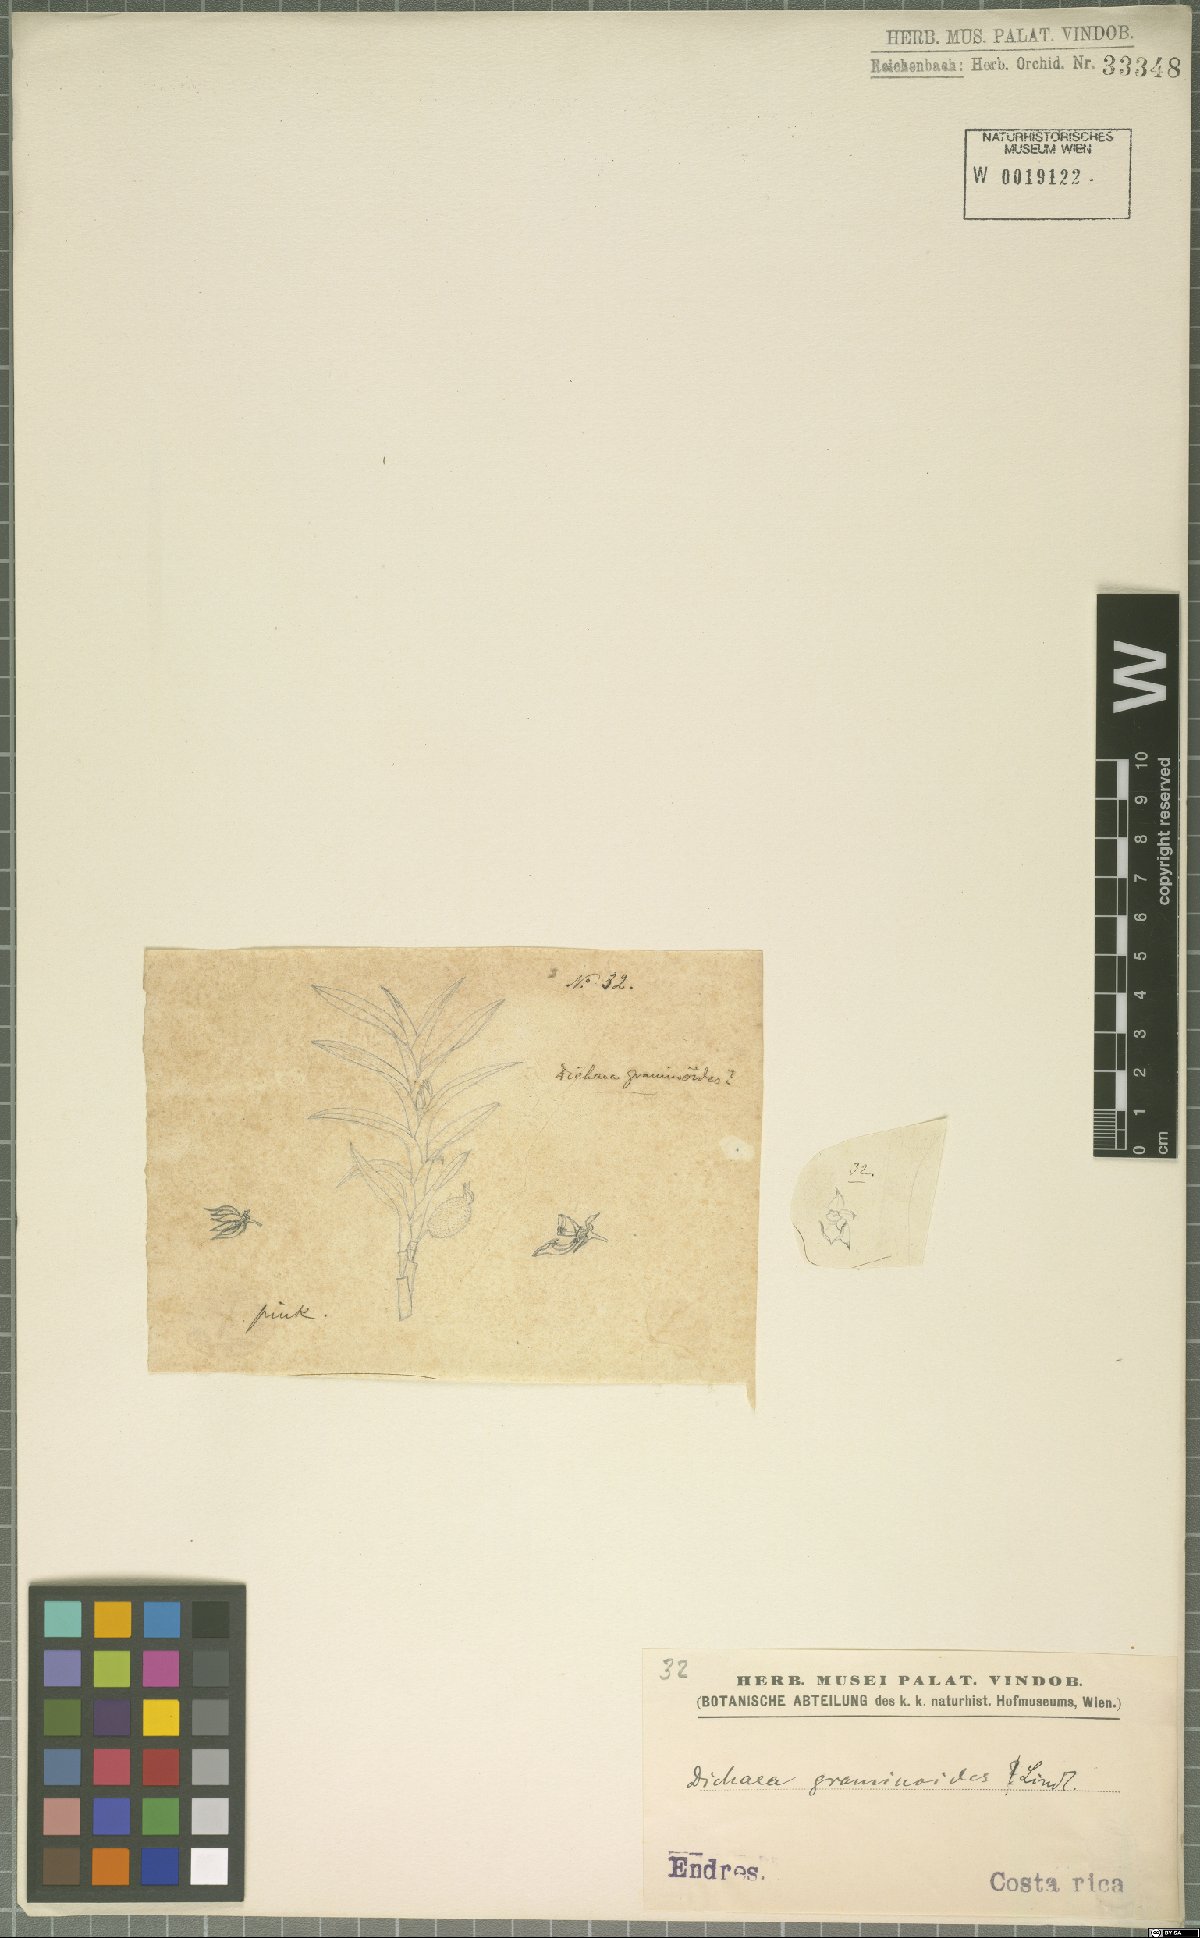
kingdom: Plantae
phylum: Tracheophyta
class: Liliopsida
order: Asparagales
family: Orchidaceae
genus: Dichaea
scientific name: Dichaea graminoides
